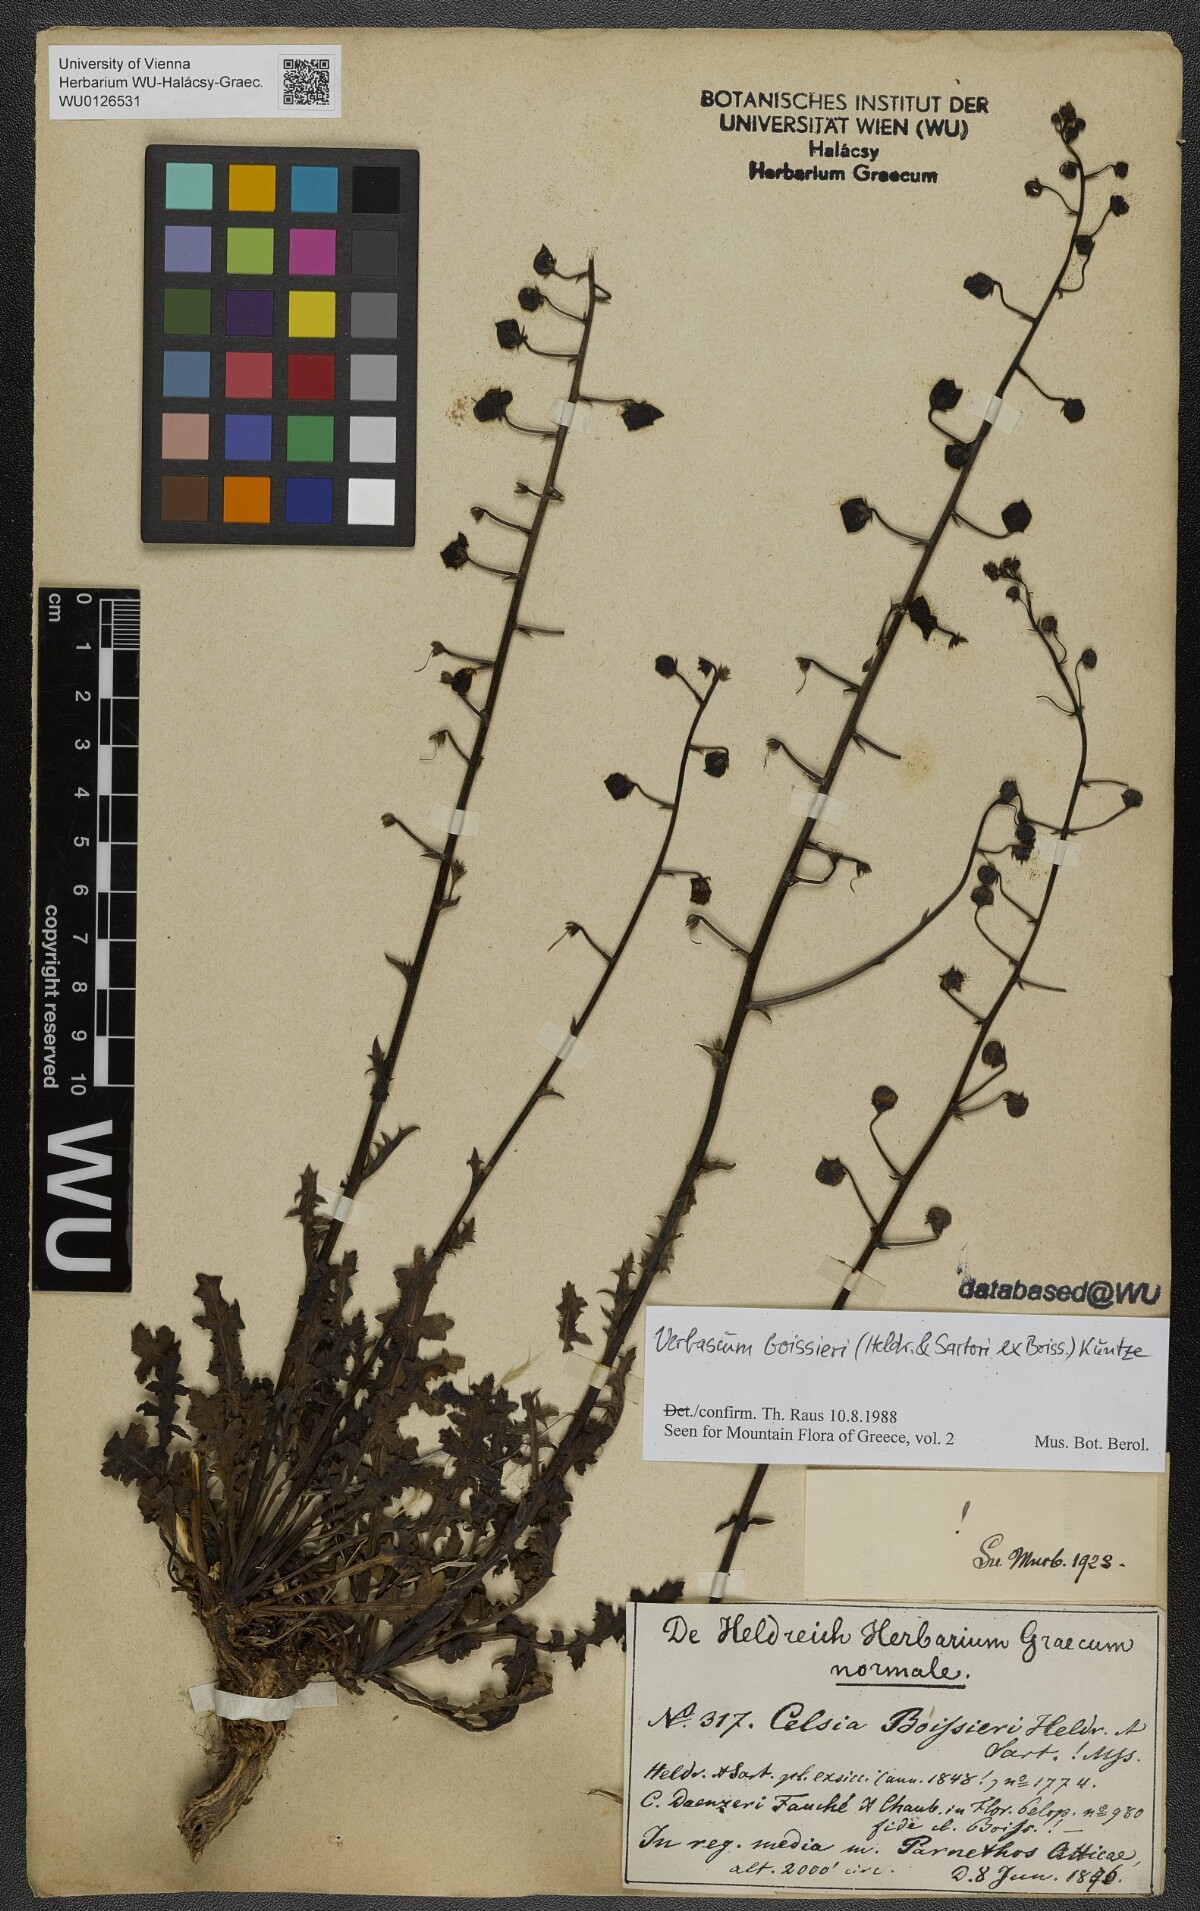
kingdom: Plantae
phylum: Tracheophyta
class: Magnoliopsida
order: Lamiales
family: Scrophulariaceae
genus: Verbascum
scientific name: Verbascum boissieri
